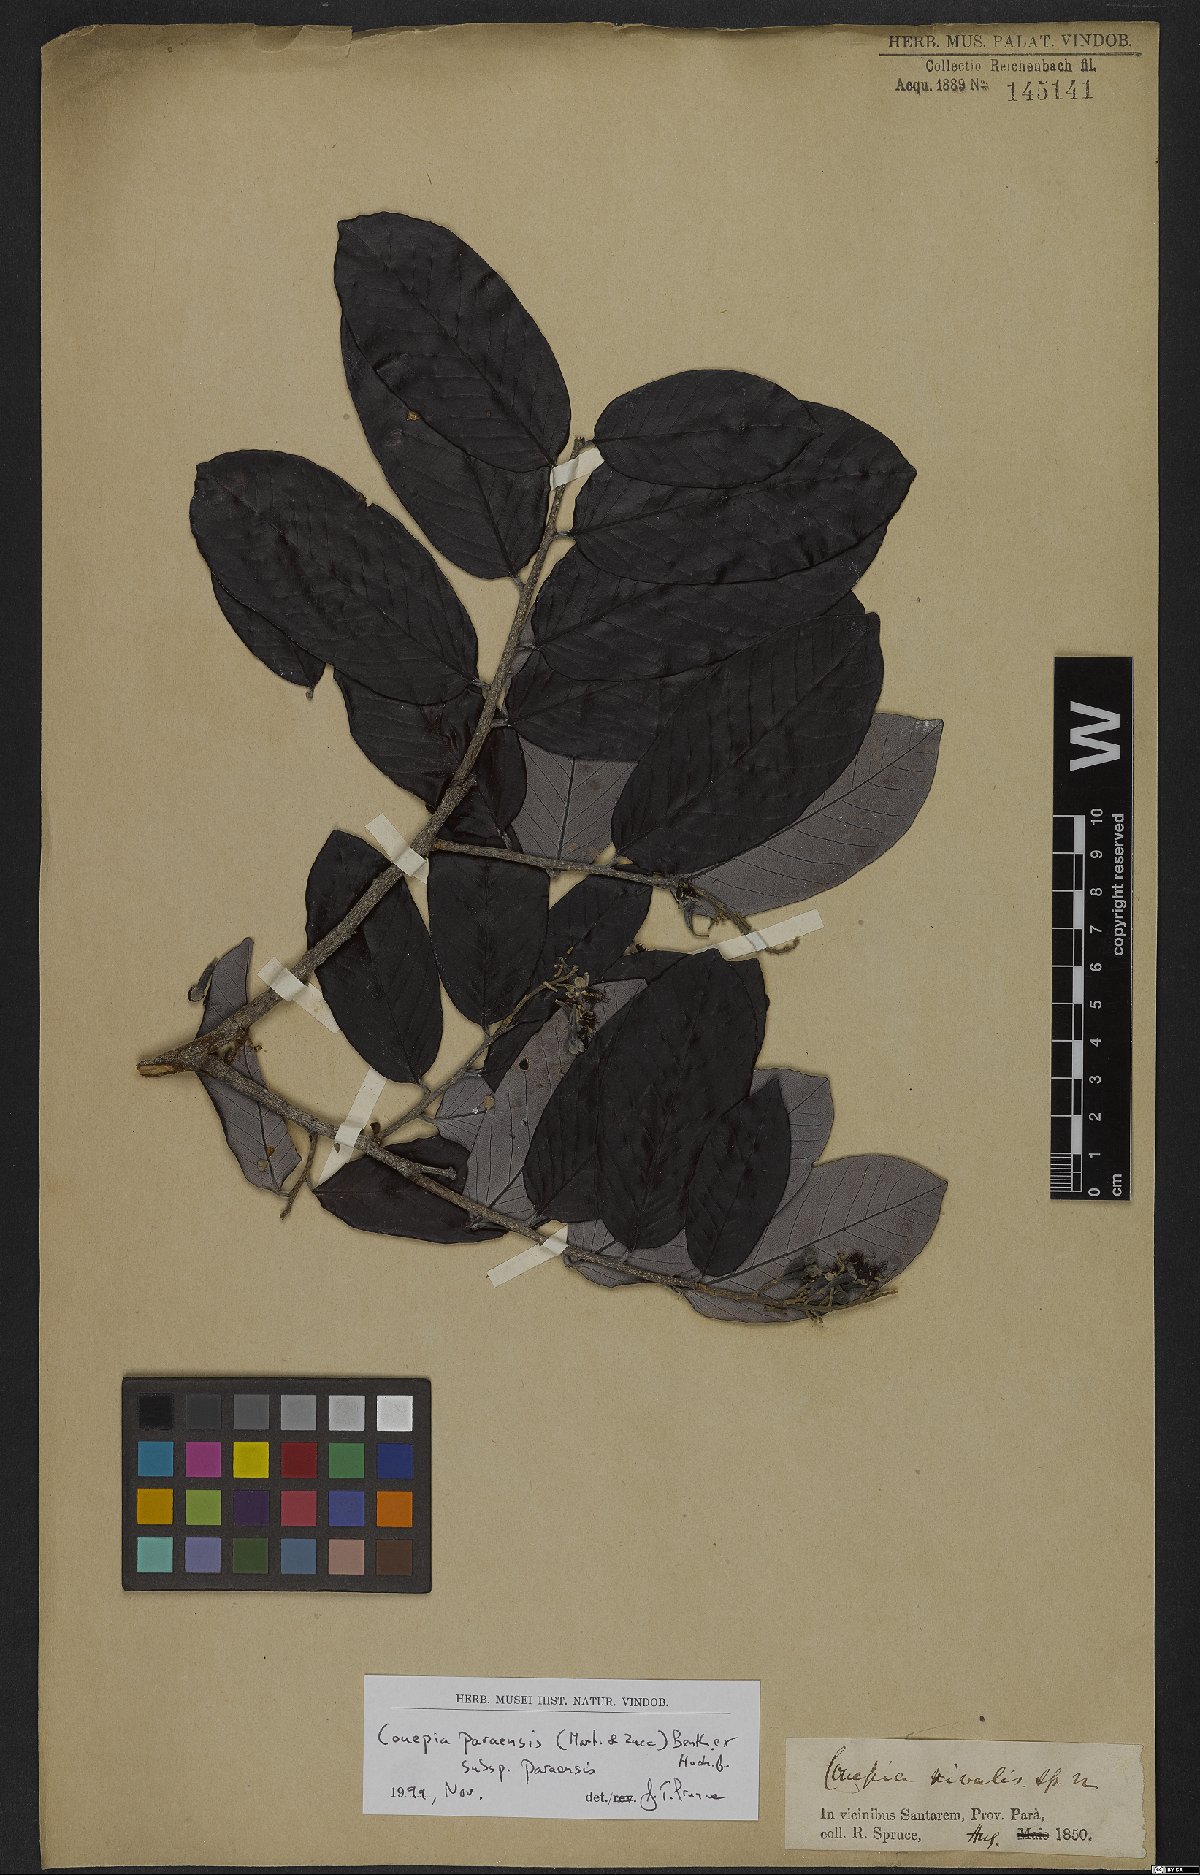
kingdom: Plantae
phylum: Tracheophyta
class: Magnoliopsida
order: Malpighiales
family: Chrysobalanaceae
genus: Couepia
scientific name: Couepia paraensis
